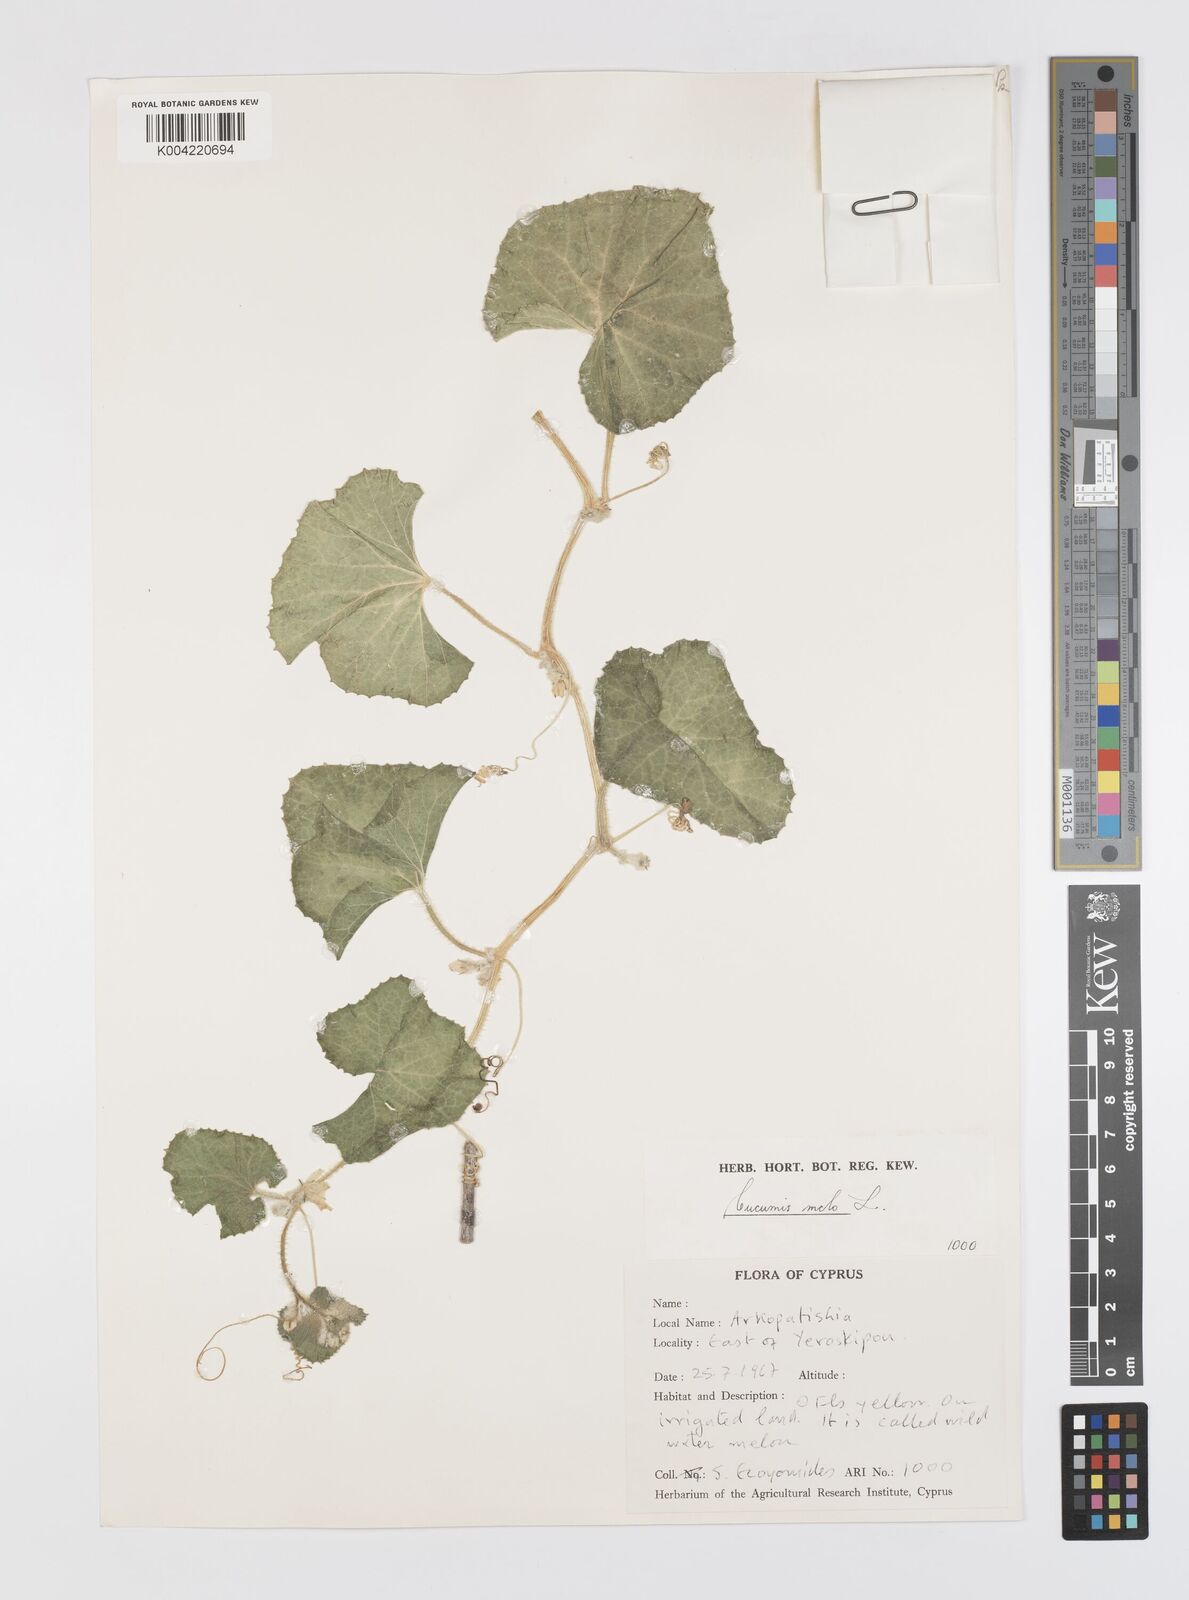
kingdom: Plantae
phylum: Tracheophyta
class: Magnoliopsida
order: Cucurbitales
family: Cucurbitaceae
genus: Cucumis
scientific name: Cucumis melo
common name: Melon
